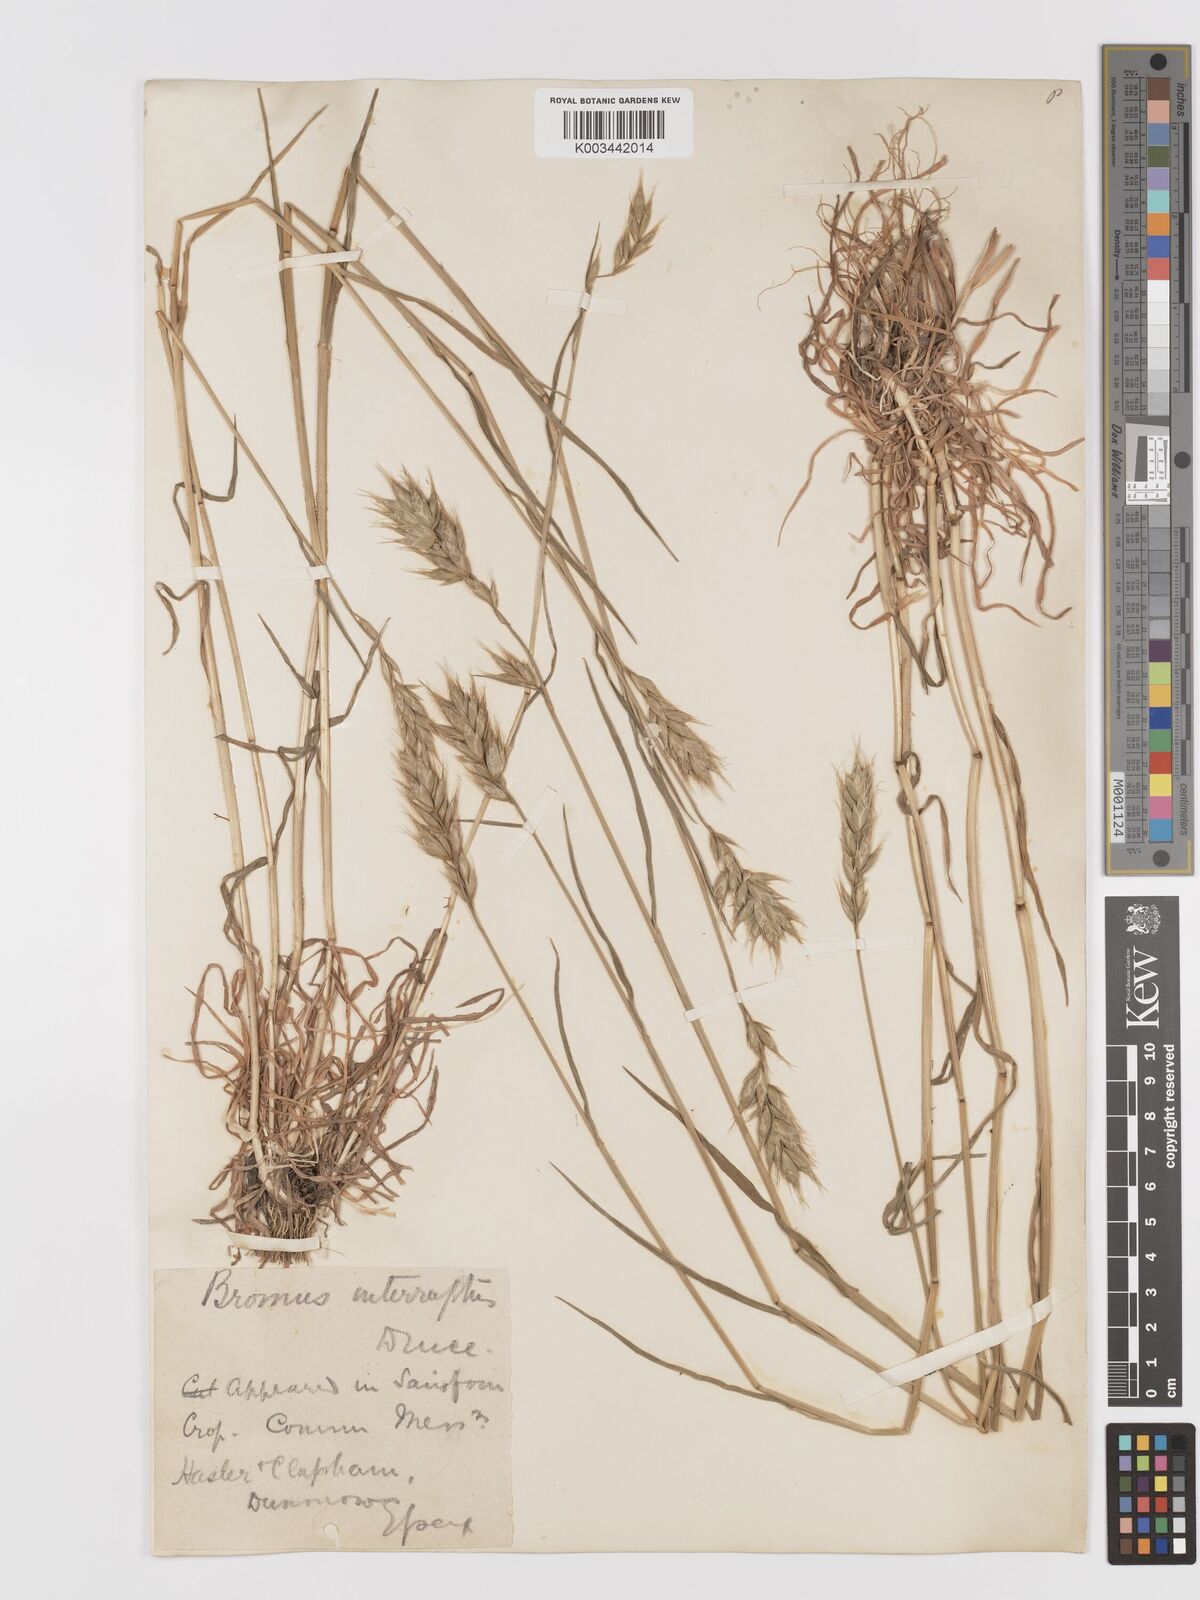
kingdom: Plantae
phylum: Tracheophyta
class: Liliopsida
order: Poales
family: Poaceae
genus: Bromus
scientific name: Bromus interruptus
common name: Interrupted brome
